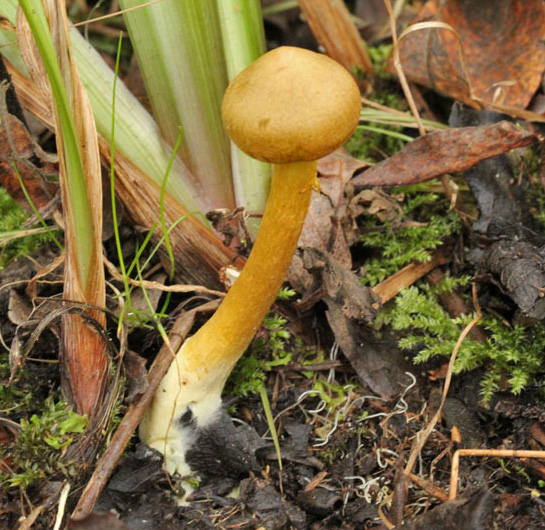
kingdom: Fungi
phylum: Basidiomycota
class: Agaricomycetes
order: Agaricales
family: Cortinariaceae
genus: Cortinarius
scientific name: Cortinarius uliginosus
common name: Marsh webcap
